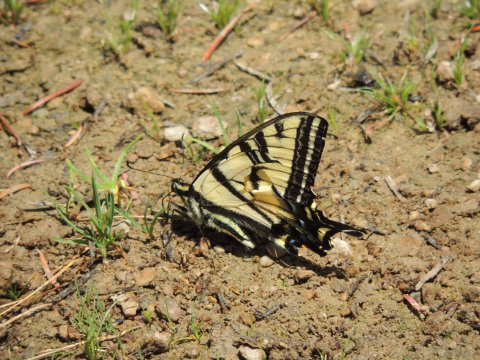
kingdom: Animalia
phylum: Arthropoda
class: Insecta
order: Lepidoptera
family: Papilionidae
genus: Pterourus
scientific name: Pterourus rutulus
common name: Western Tiger Swallowtail
